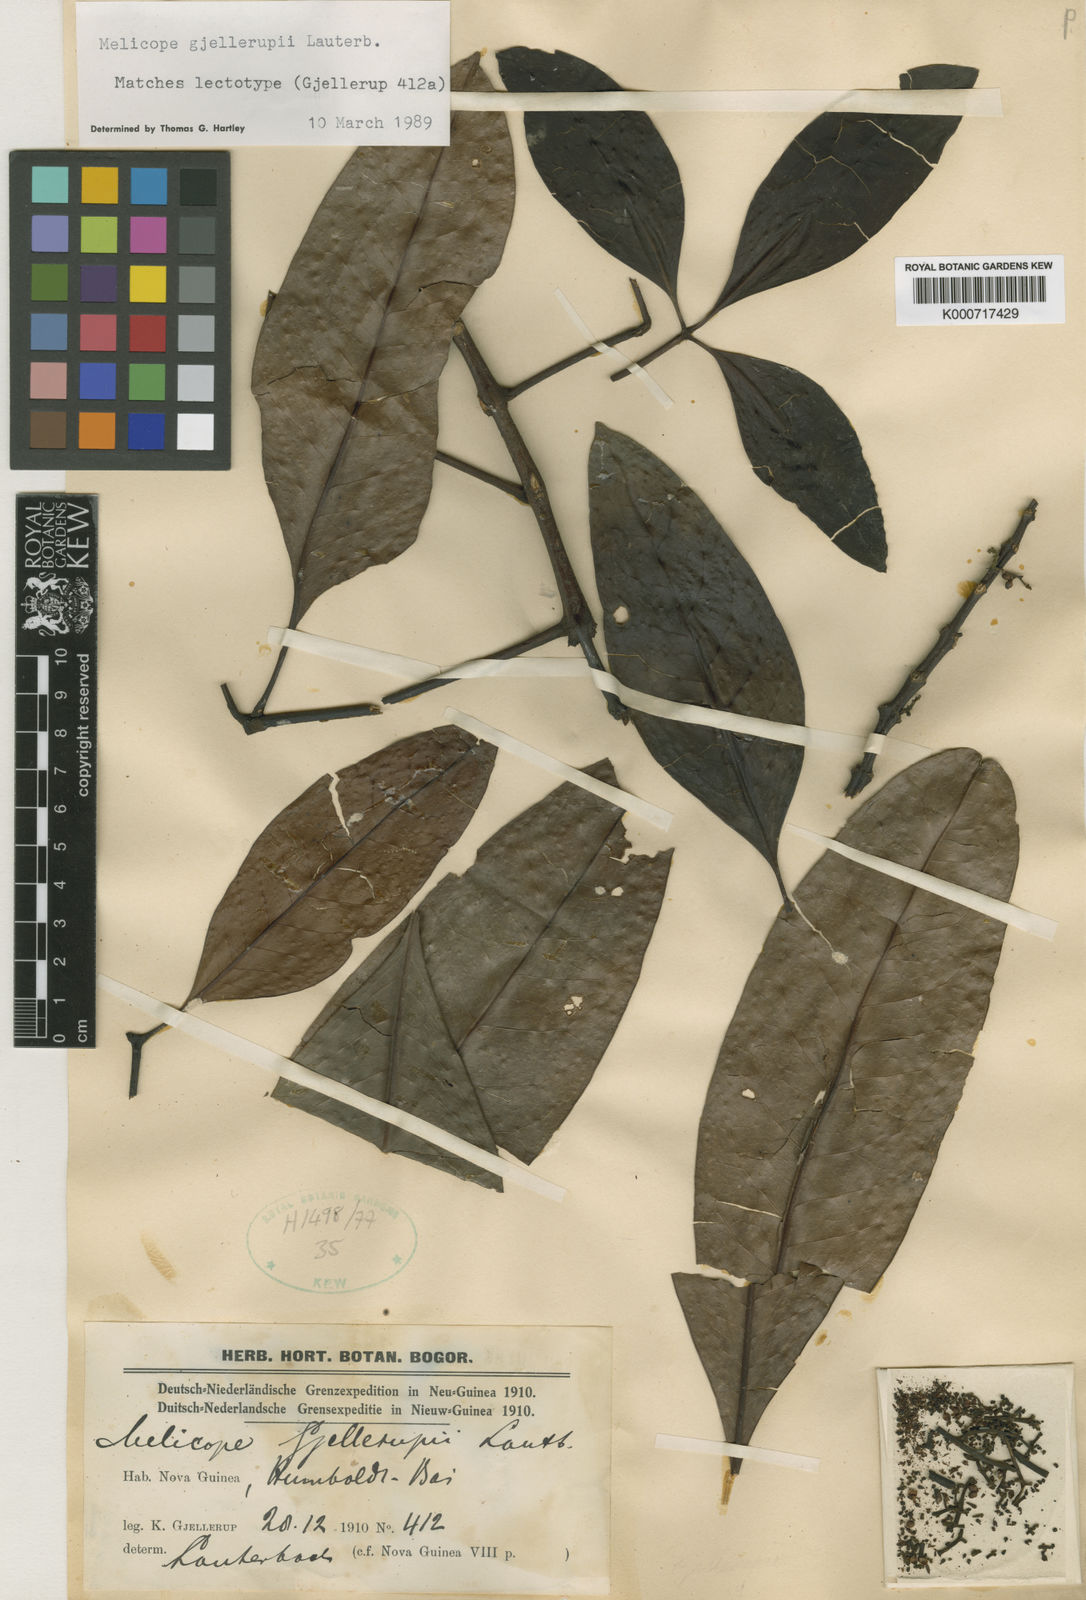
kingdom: Plantae
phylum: Tracheophyta
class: Magnoliopsida
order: Sapindales
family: Rutaceae
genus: Melicope
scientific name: Melicope triphylla
